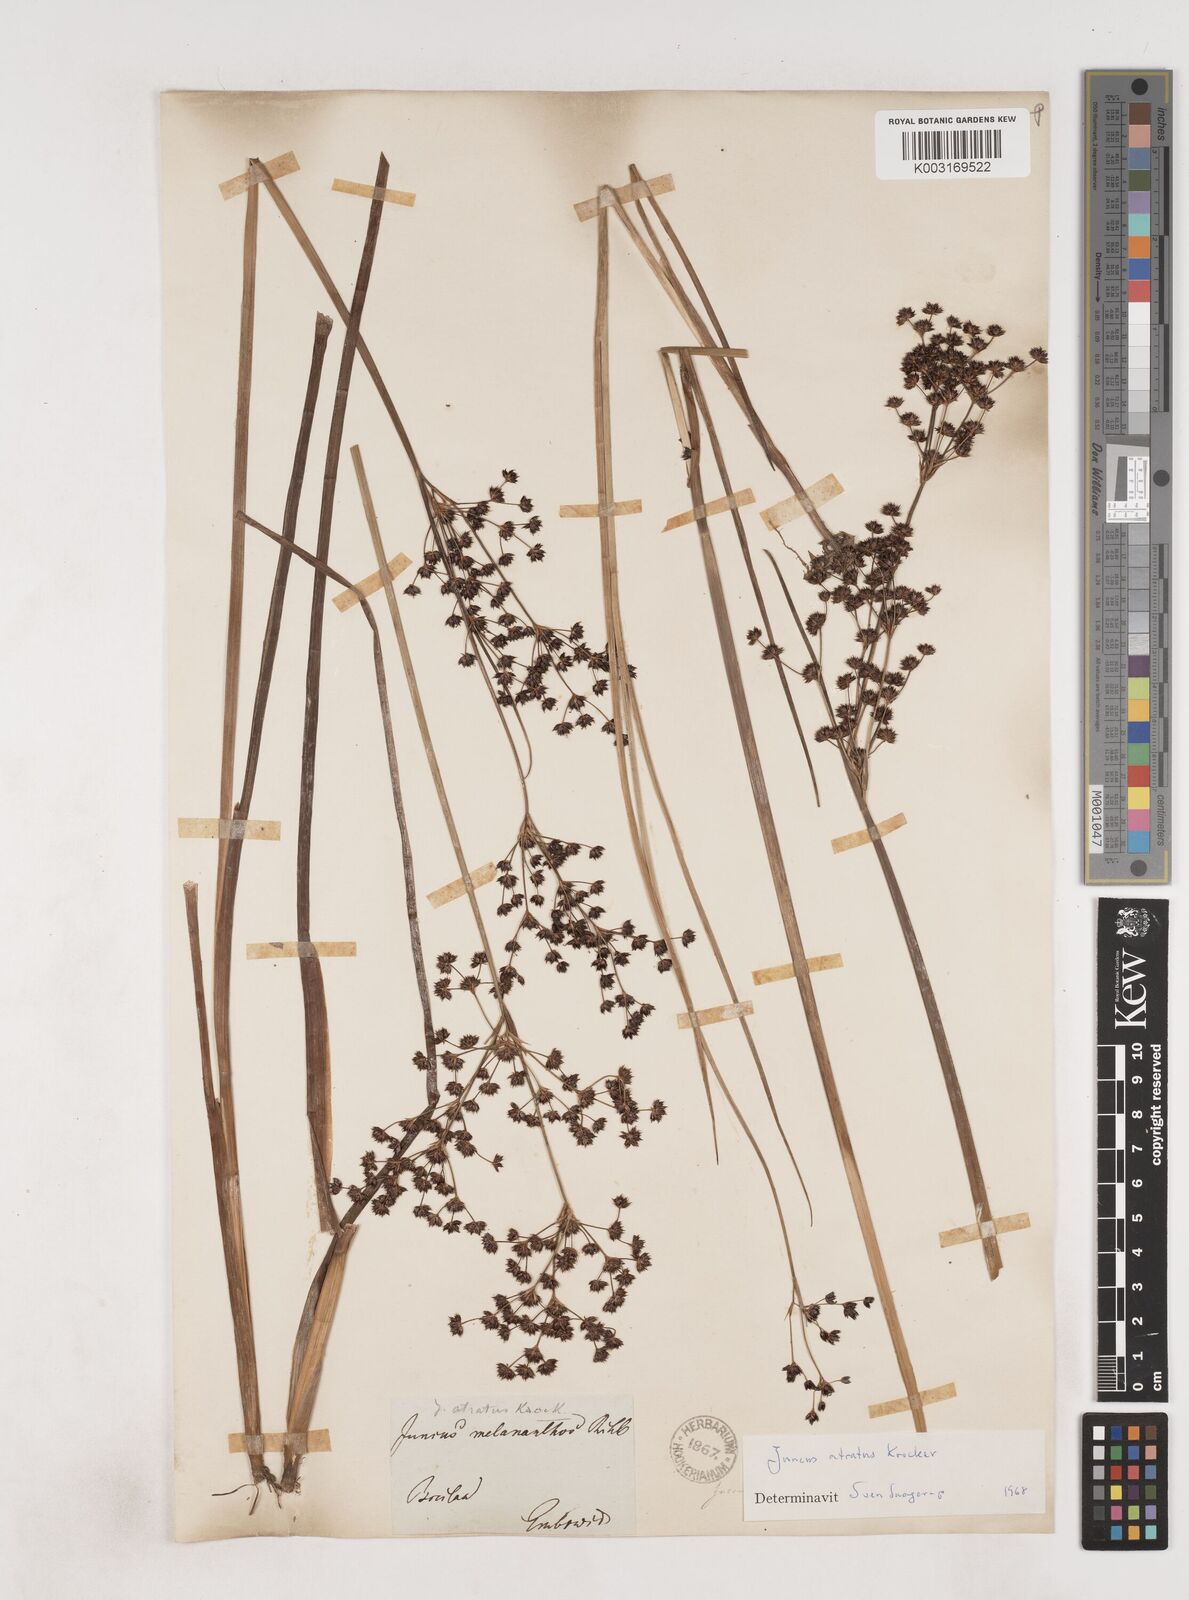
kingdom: Plantae
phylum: Tracheophyta
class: Liliopsida
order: Poales
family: Juncaceae
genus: Juncus
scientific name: Juncus atratus
